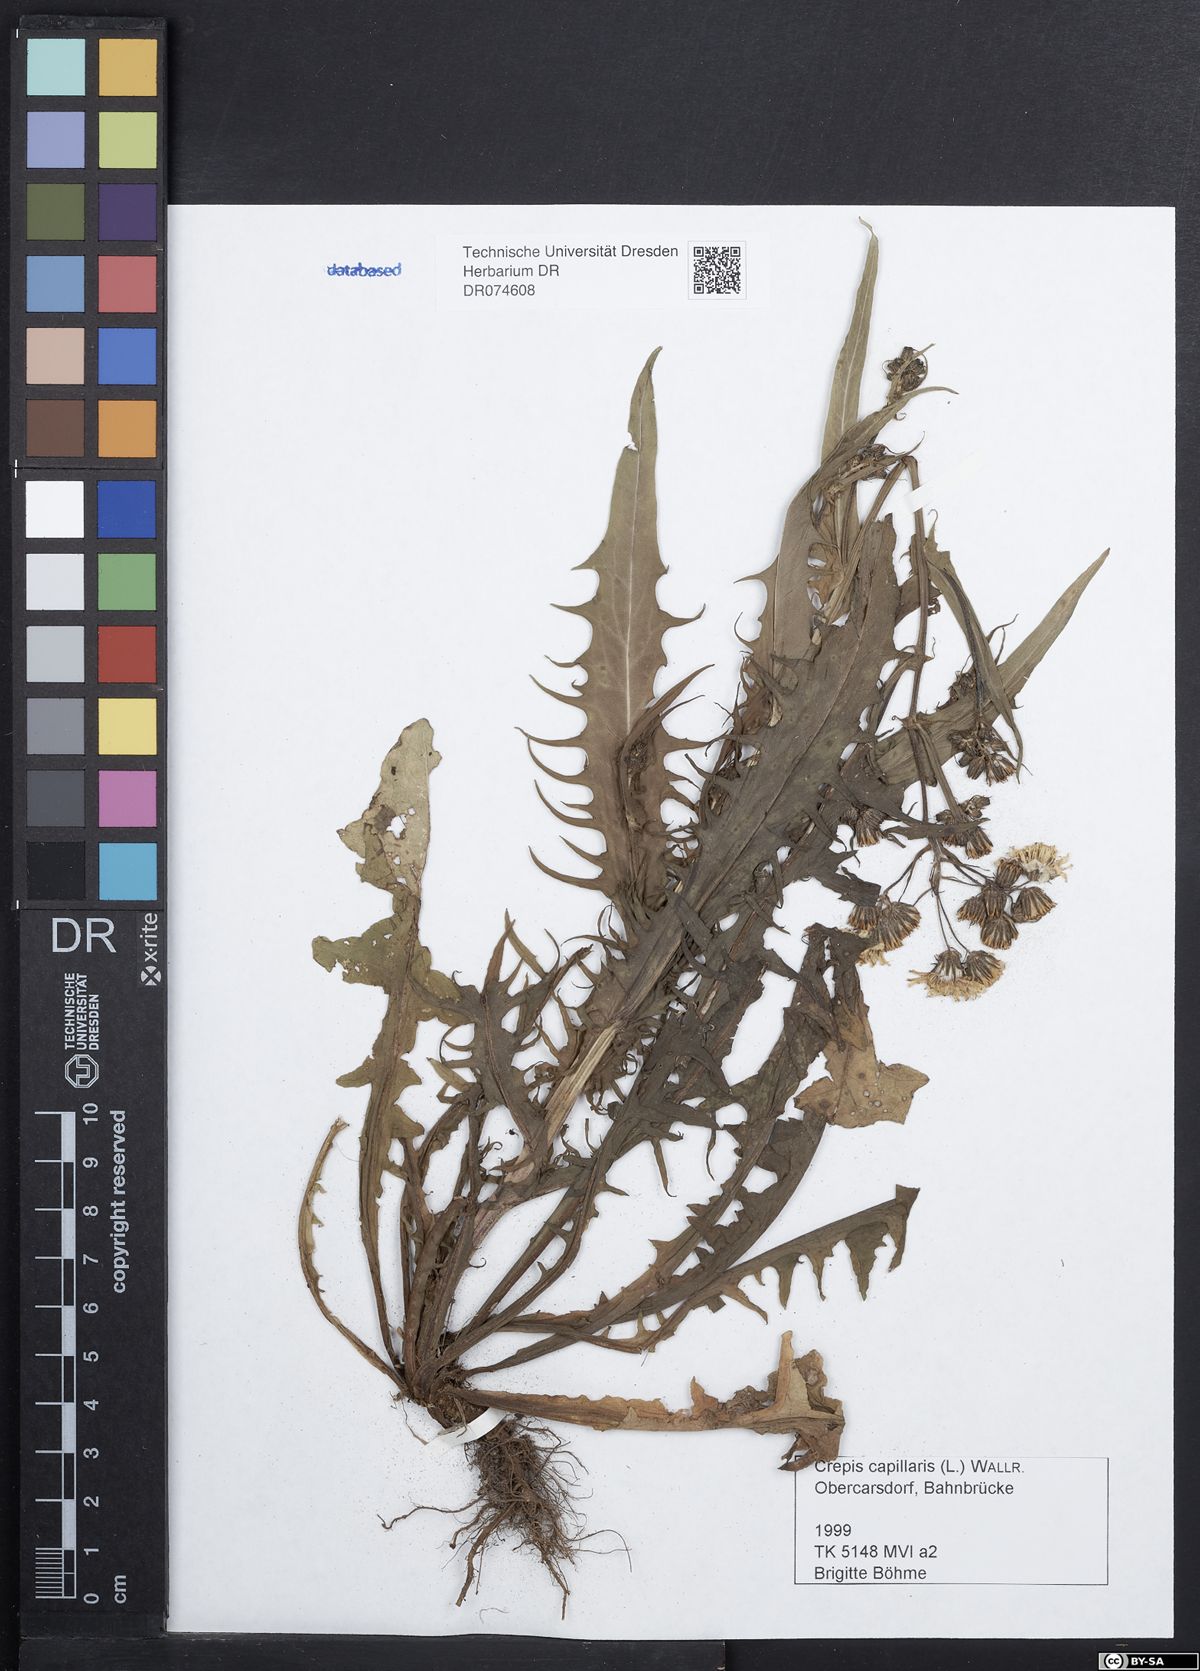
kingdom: Plantae
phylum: Tracheophyta
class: Magnoliopsida
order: Asterales
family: Asteraceae
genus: Crepis
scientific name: Crepis capillaris
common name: Smooth hawksbeard
